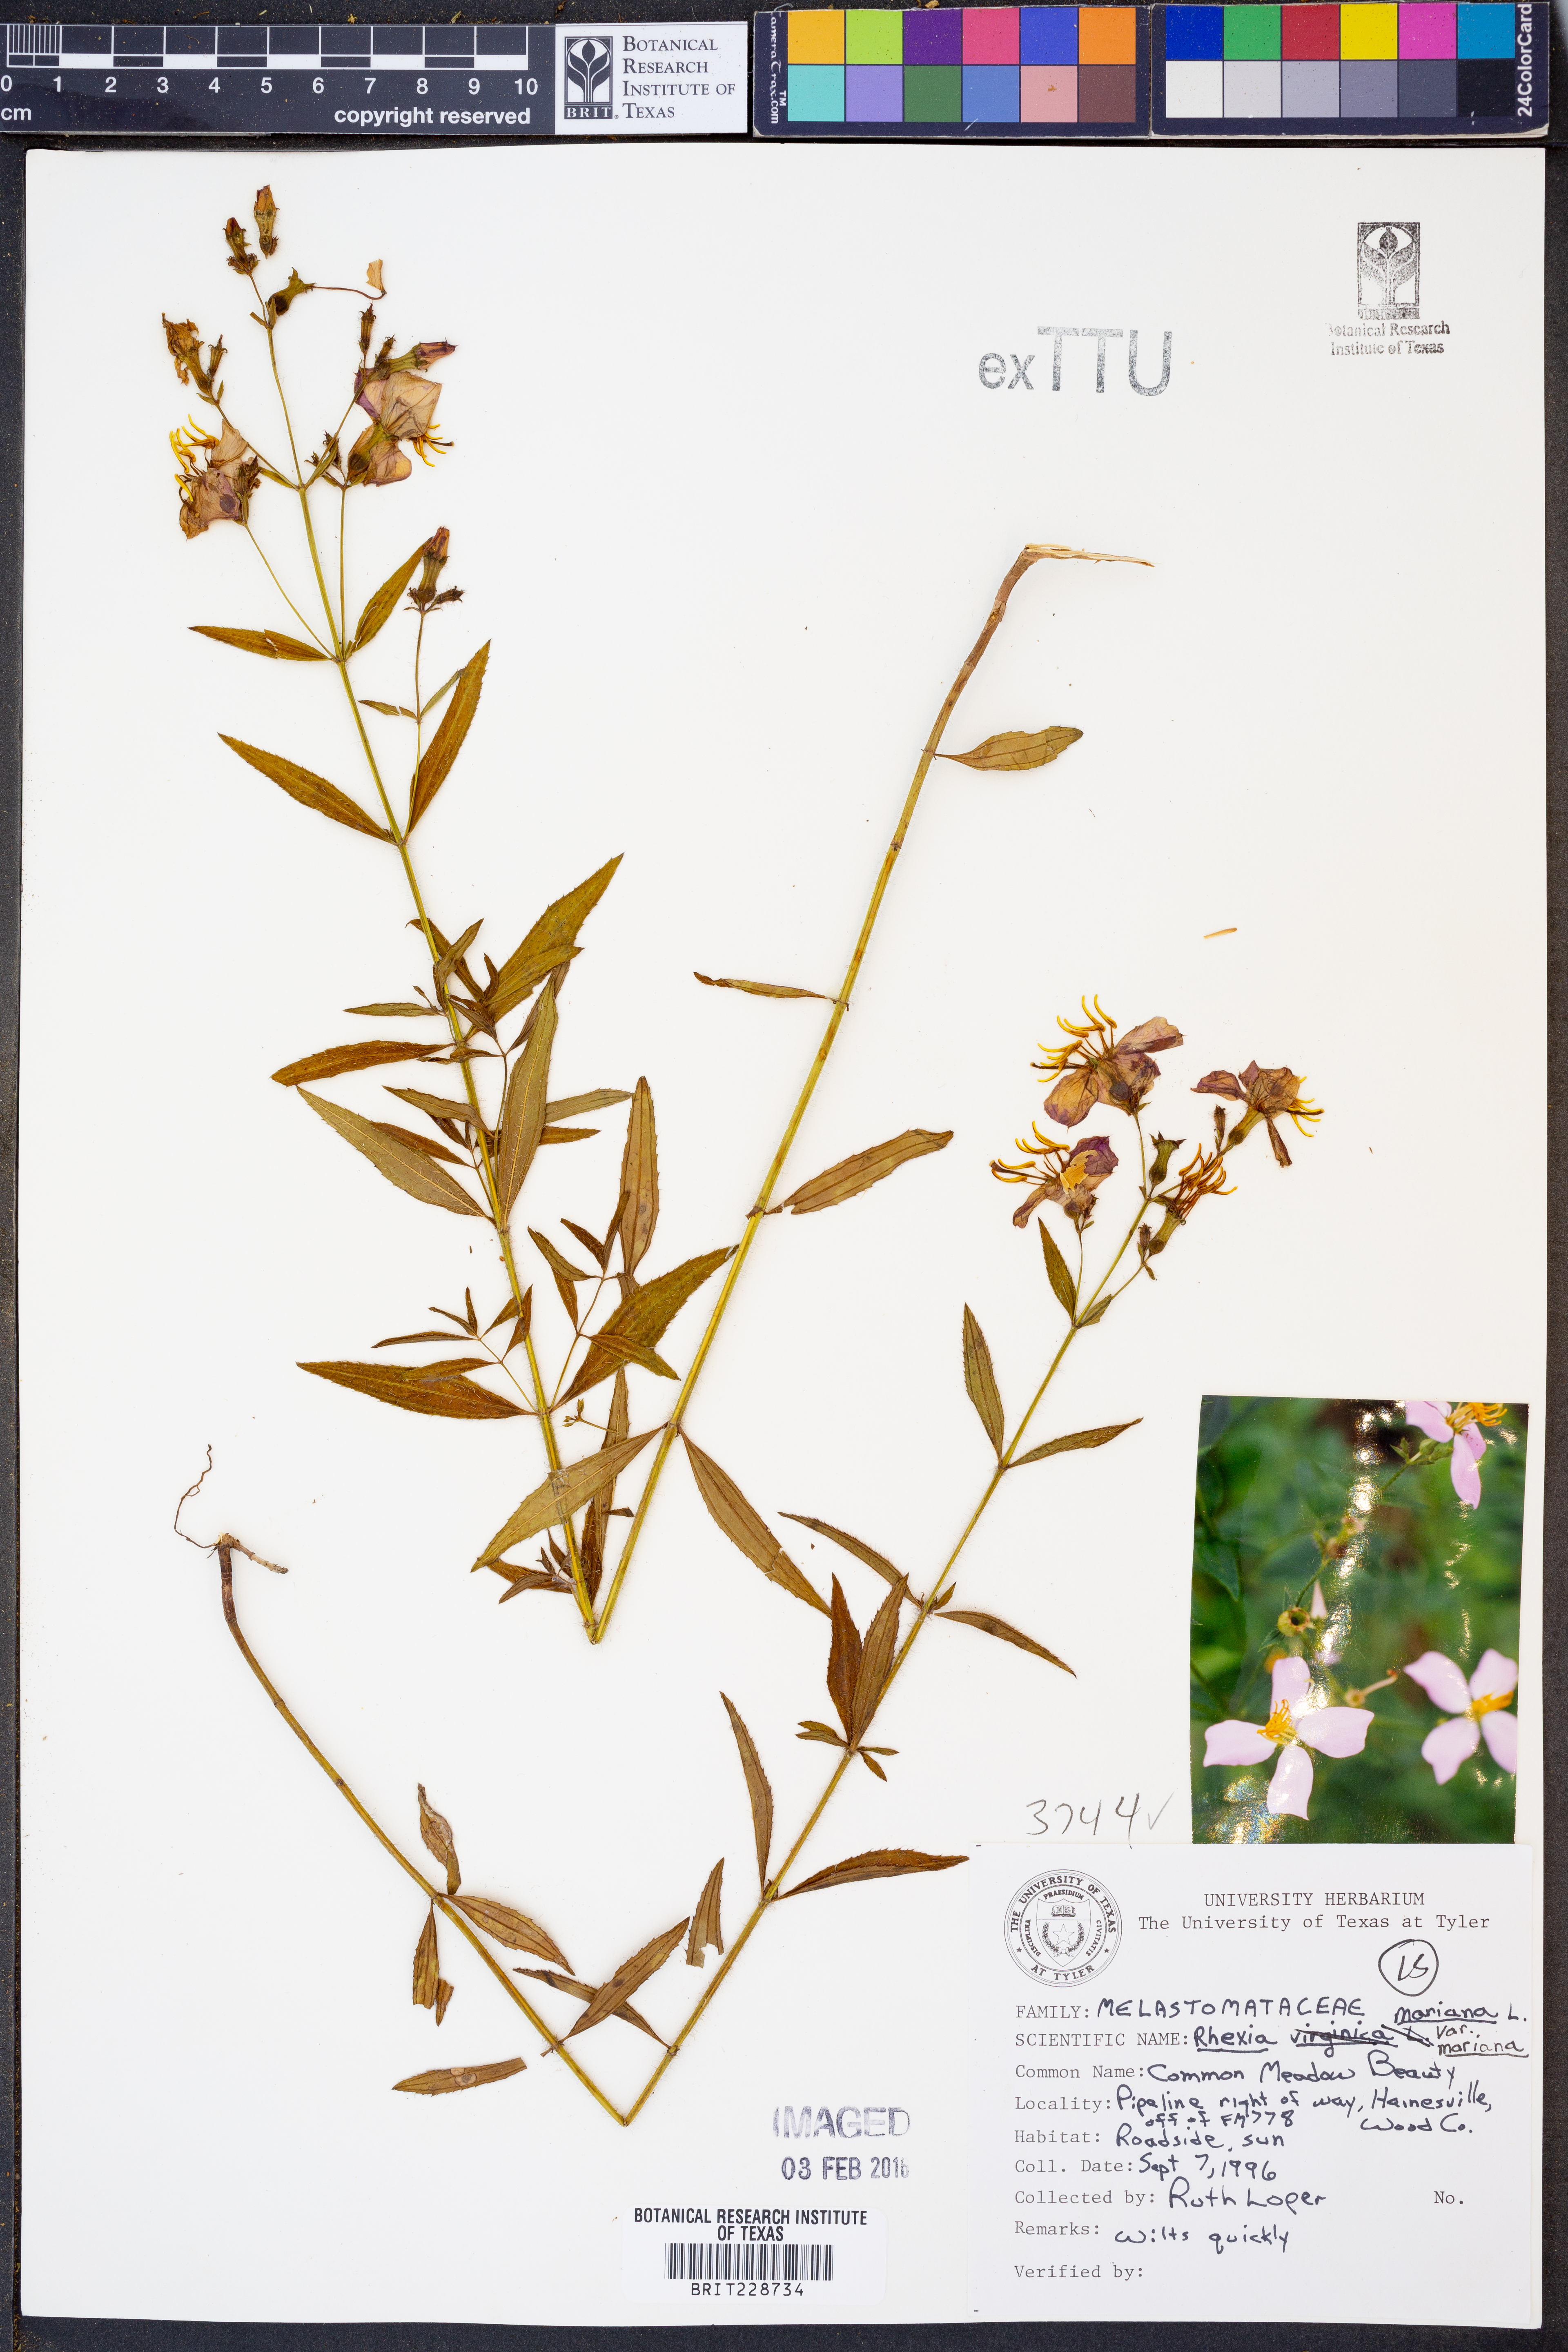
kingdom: Plantae
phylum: Tracheophyta
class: Magnoliopsida
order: Myrtales
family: Melastomataceae
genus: Rhexia
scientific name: Rhexia mariana
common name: Dull meadow-pitcher
